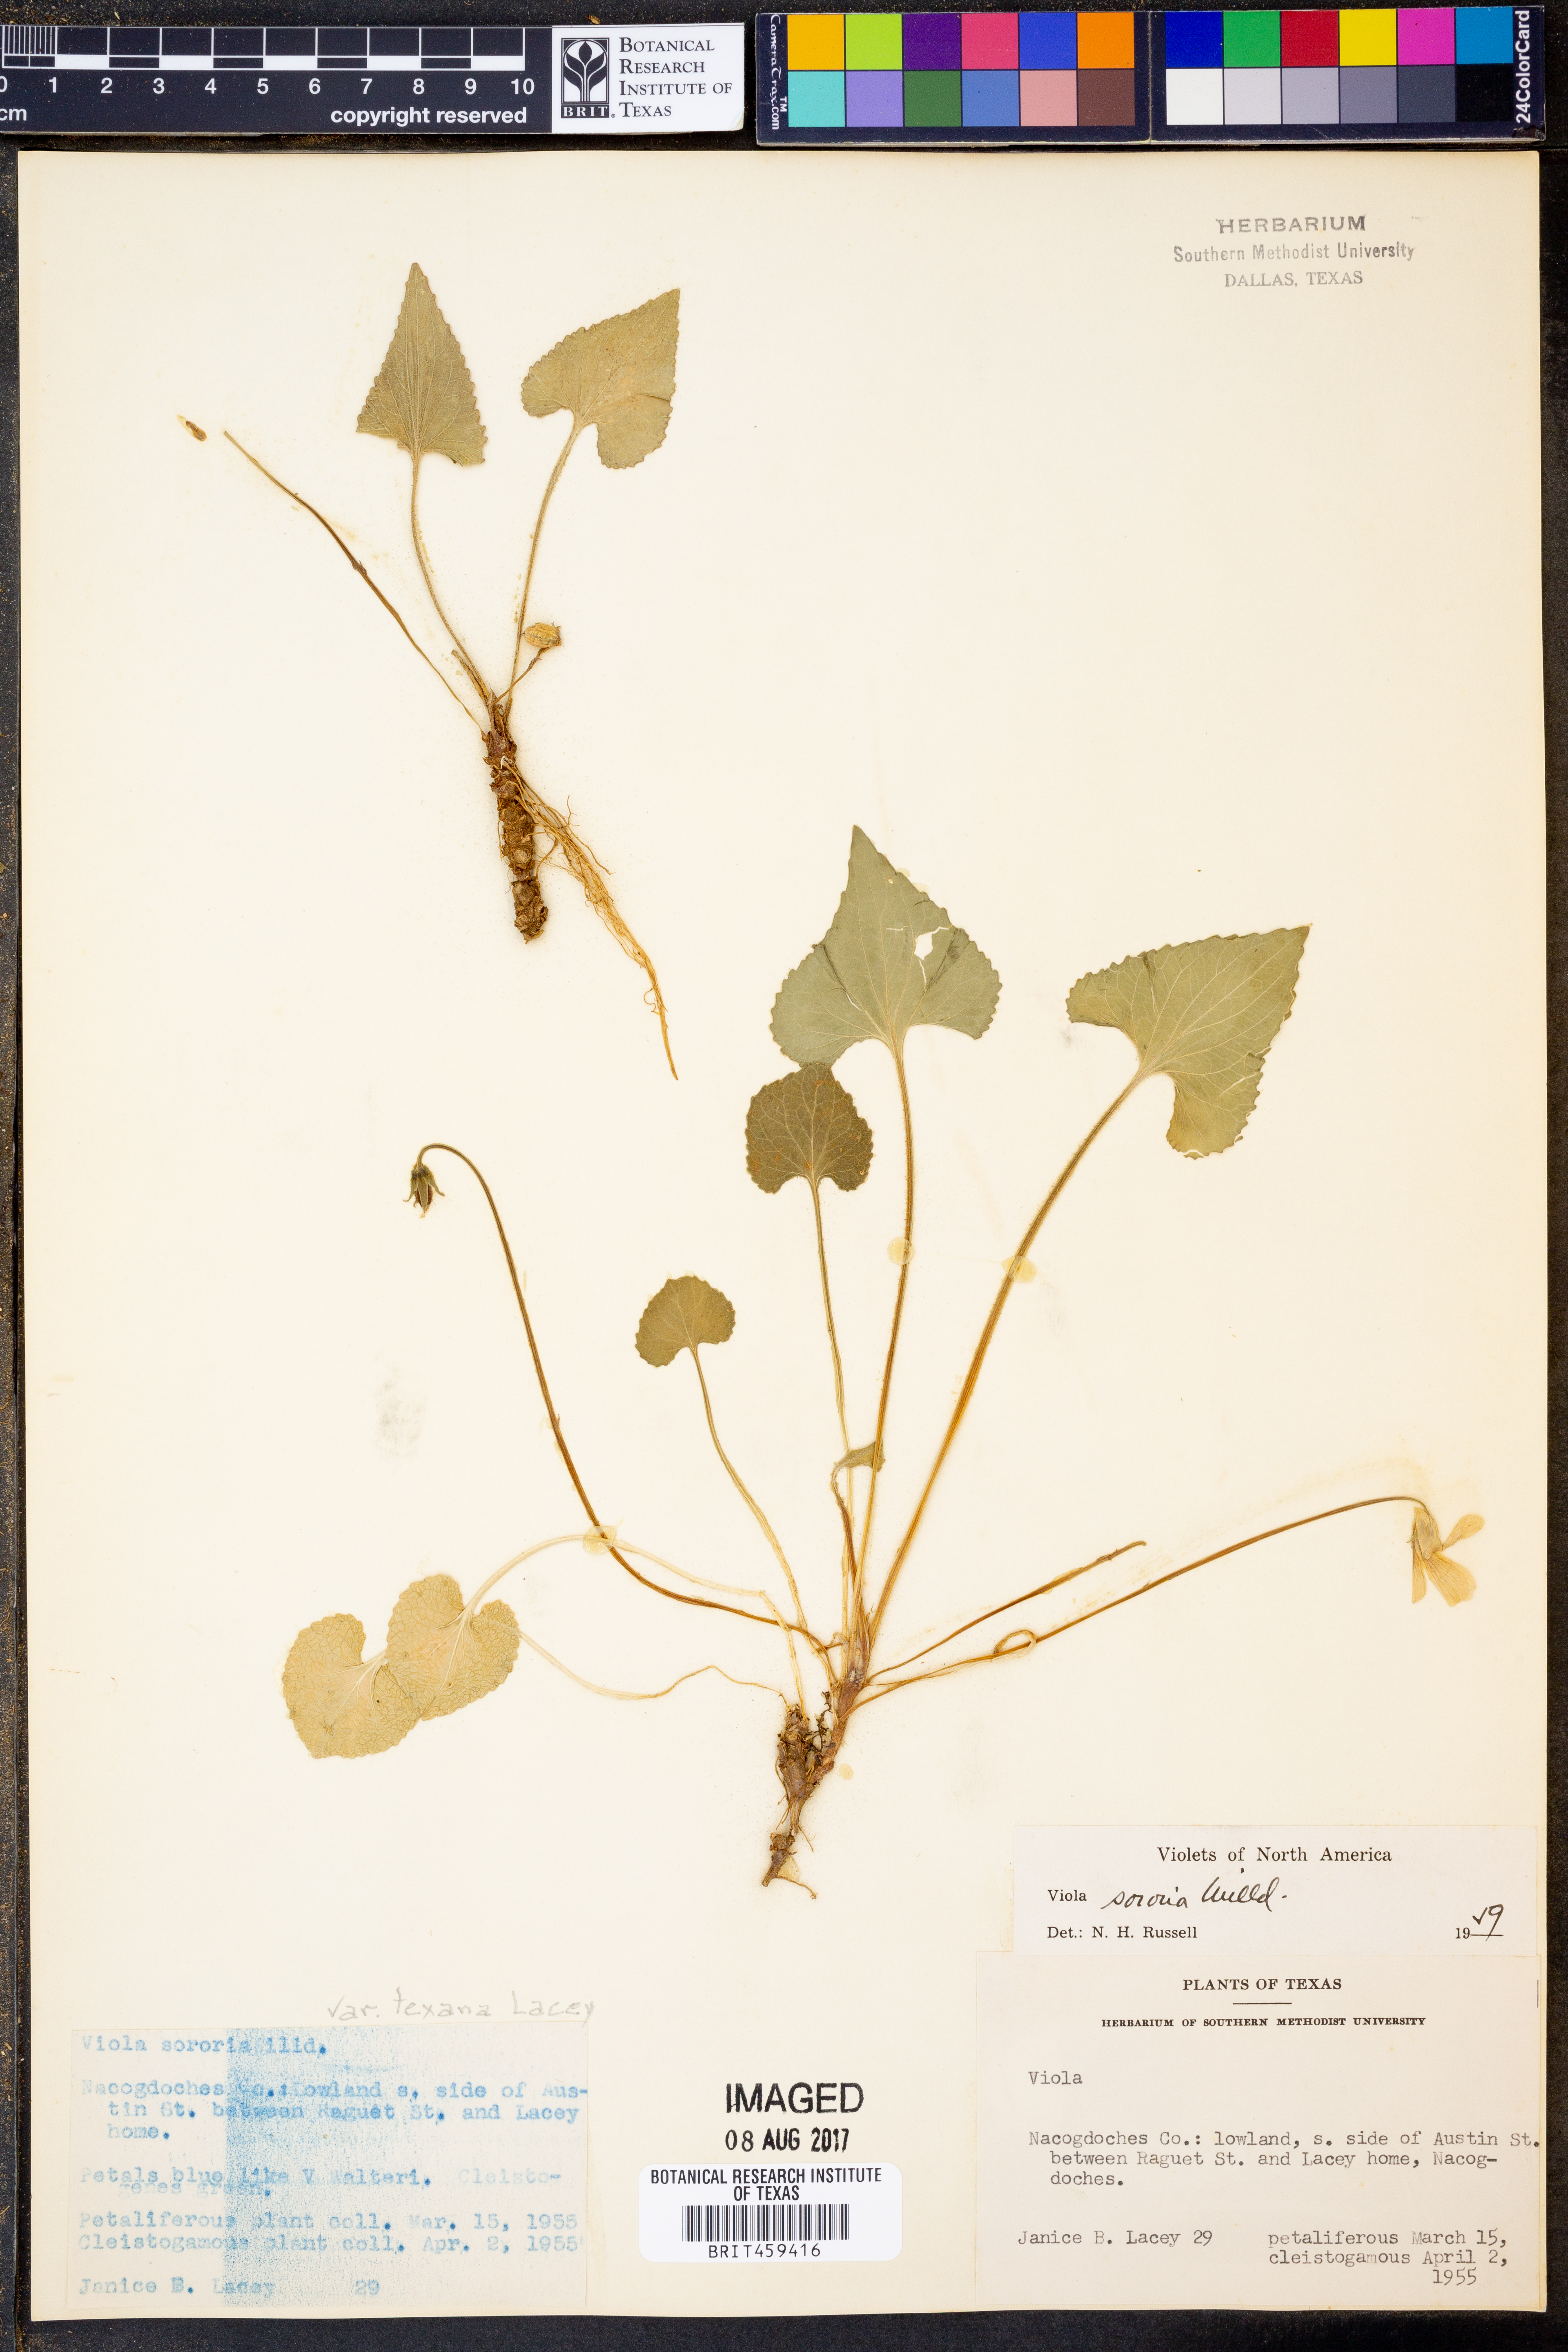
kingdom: Plantae
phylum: Tracheophyta
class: Magnoliopsida
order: Malpighiales
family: Violaceae
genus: Viola
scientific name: Viola sororia
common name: Dooryard violet
